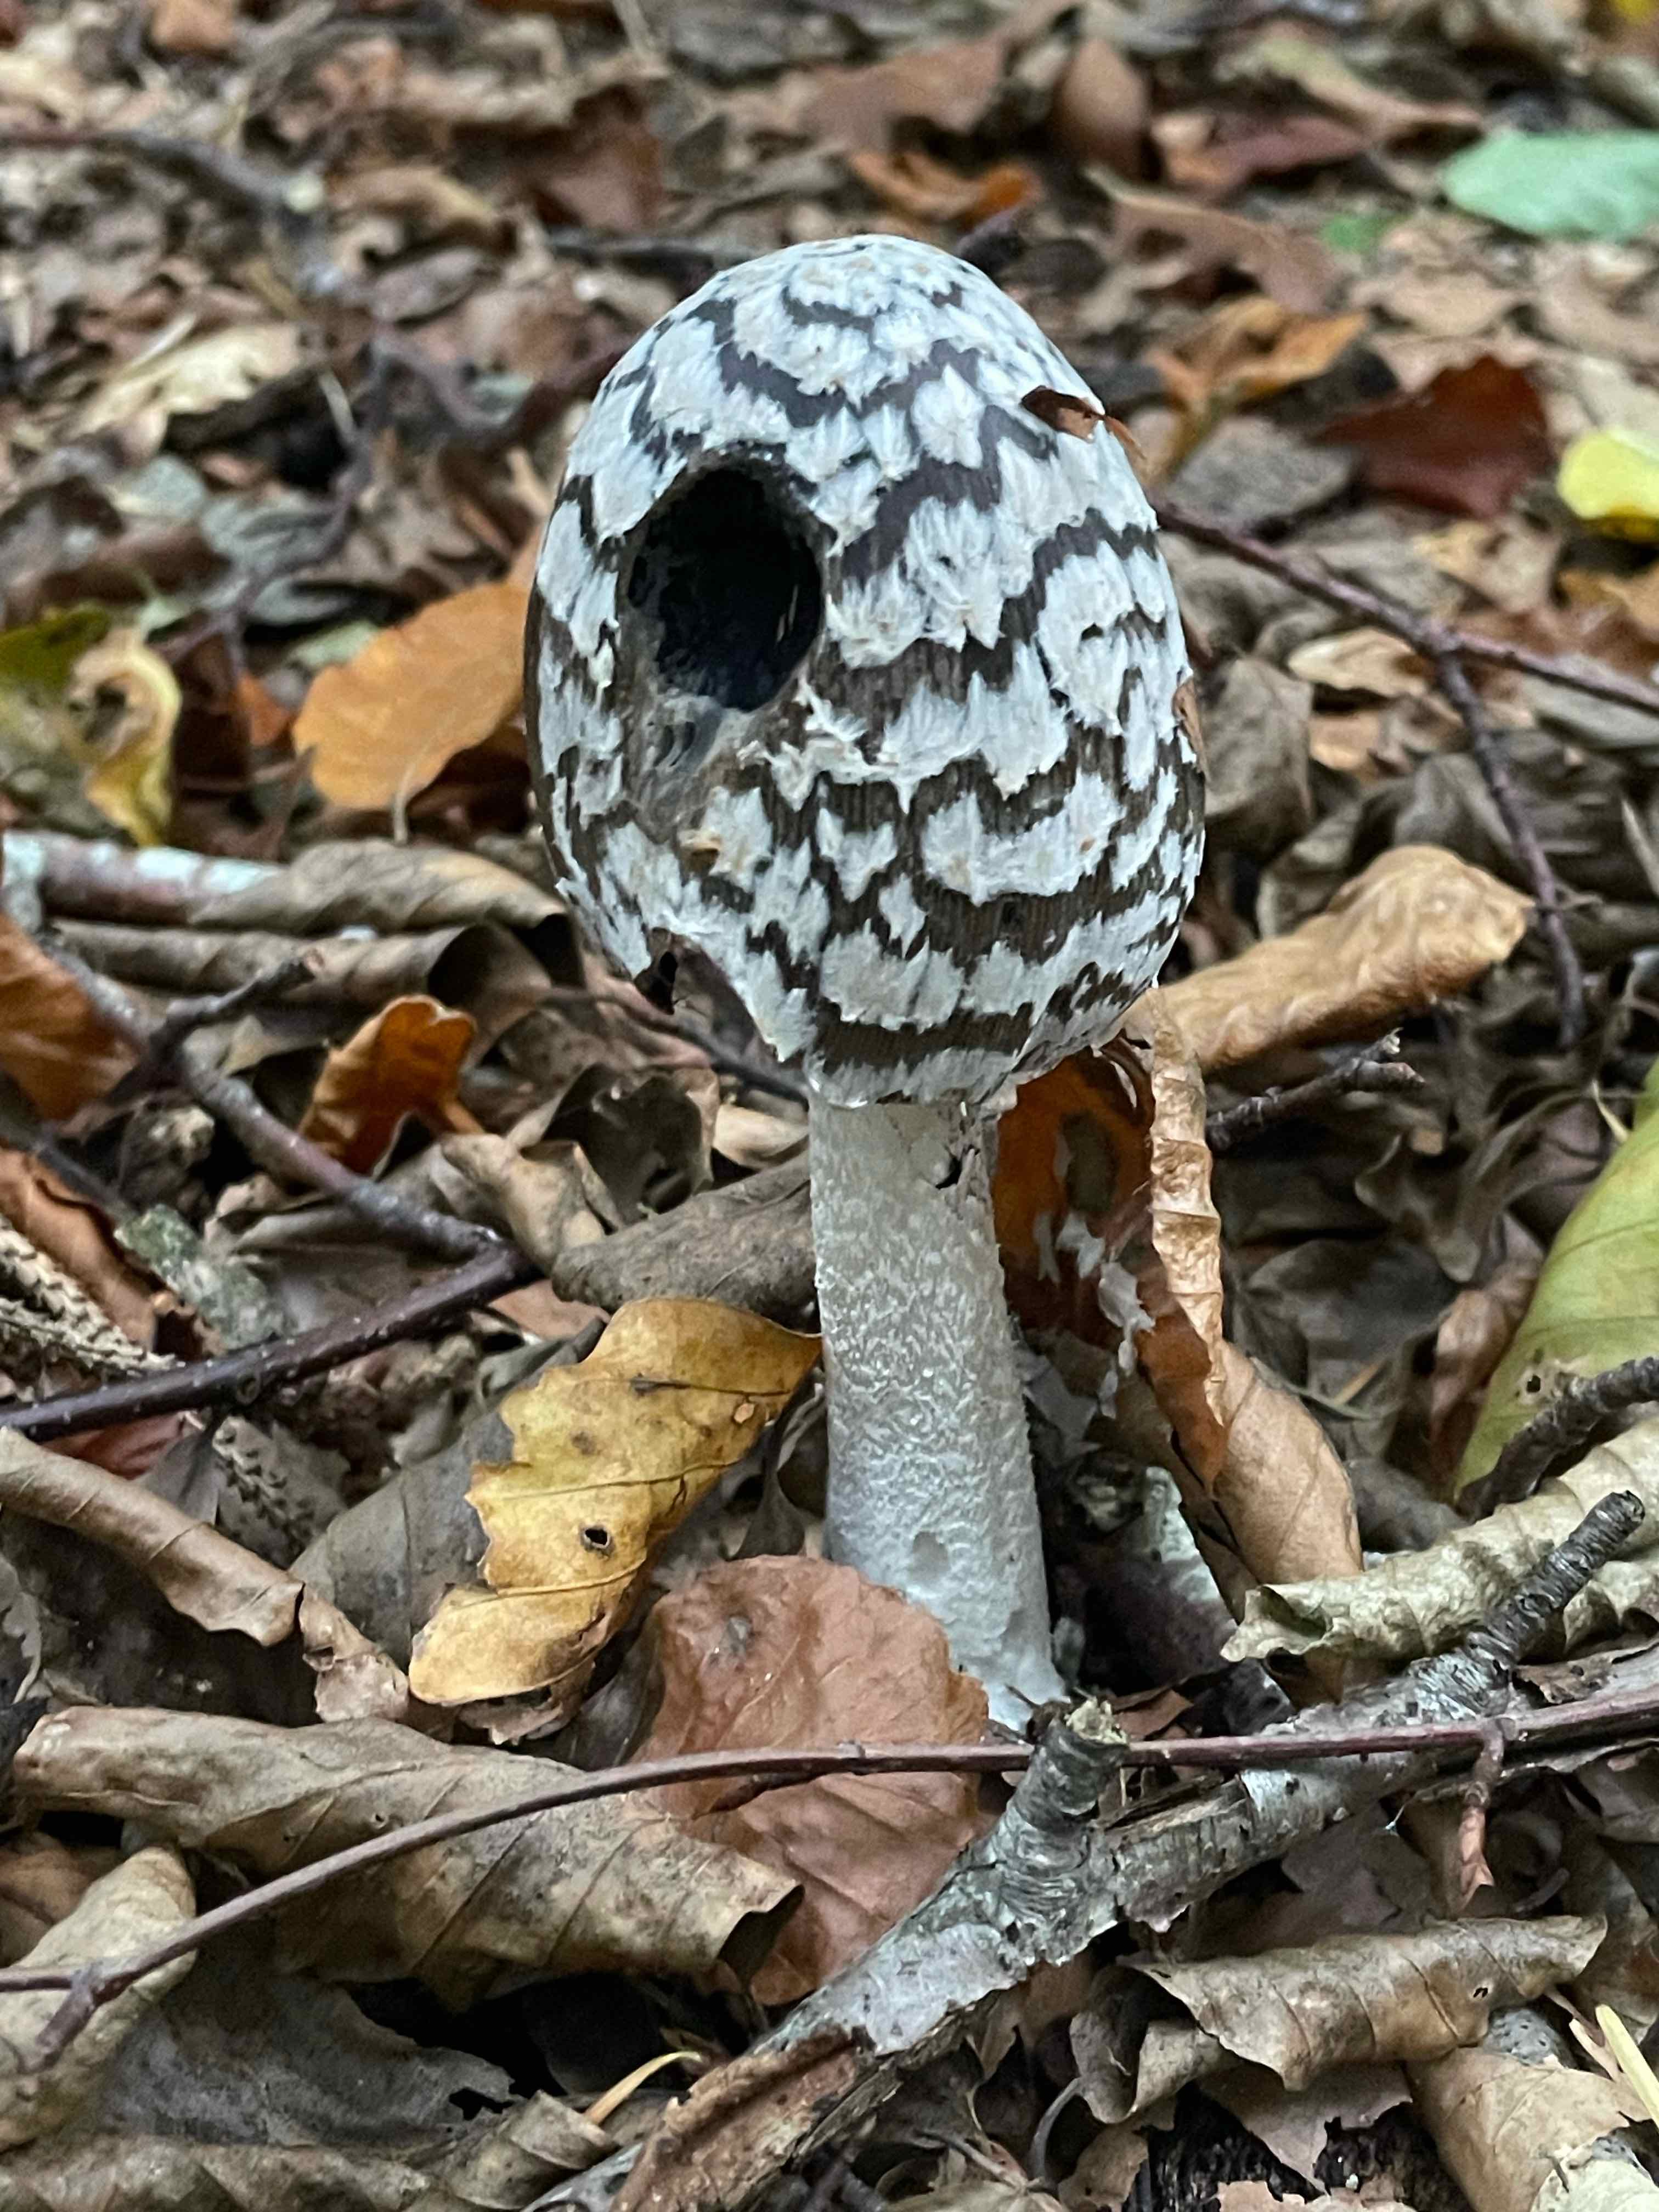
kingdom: Fungi
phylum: Basidiomycota
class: Agaricomycetes
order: Agaricales
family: Psathyrellaceae
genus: Coprinopsis
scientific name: Coprinopsis picacea
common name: skade-blækhat
